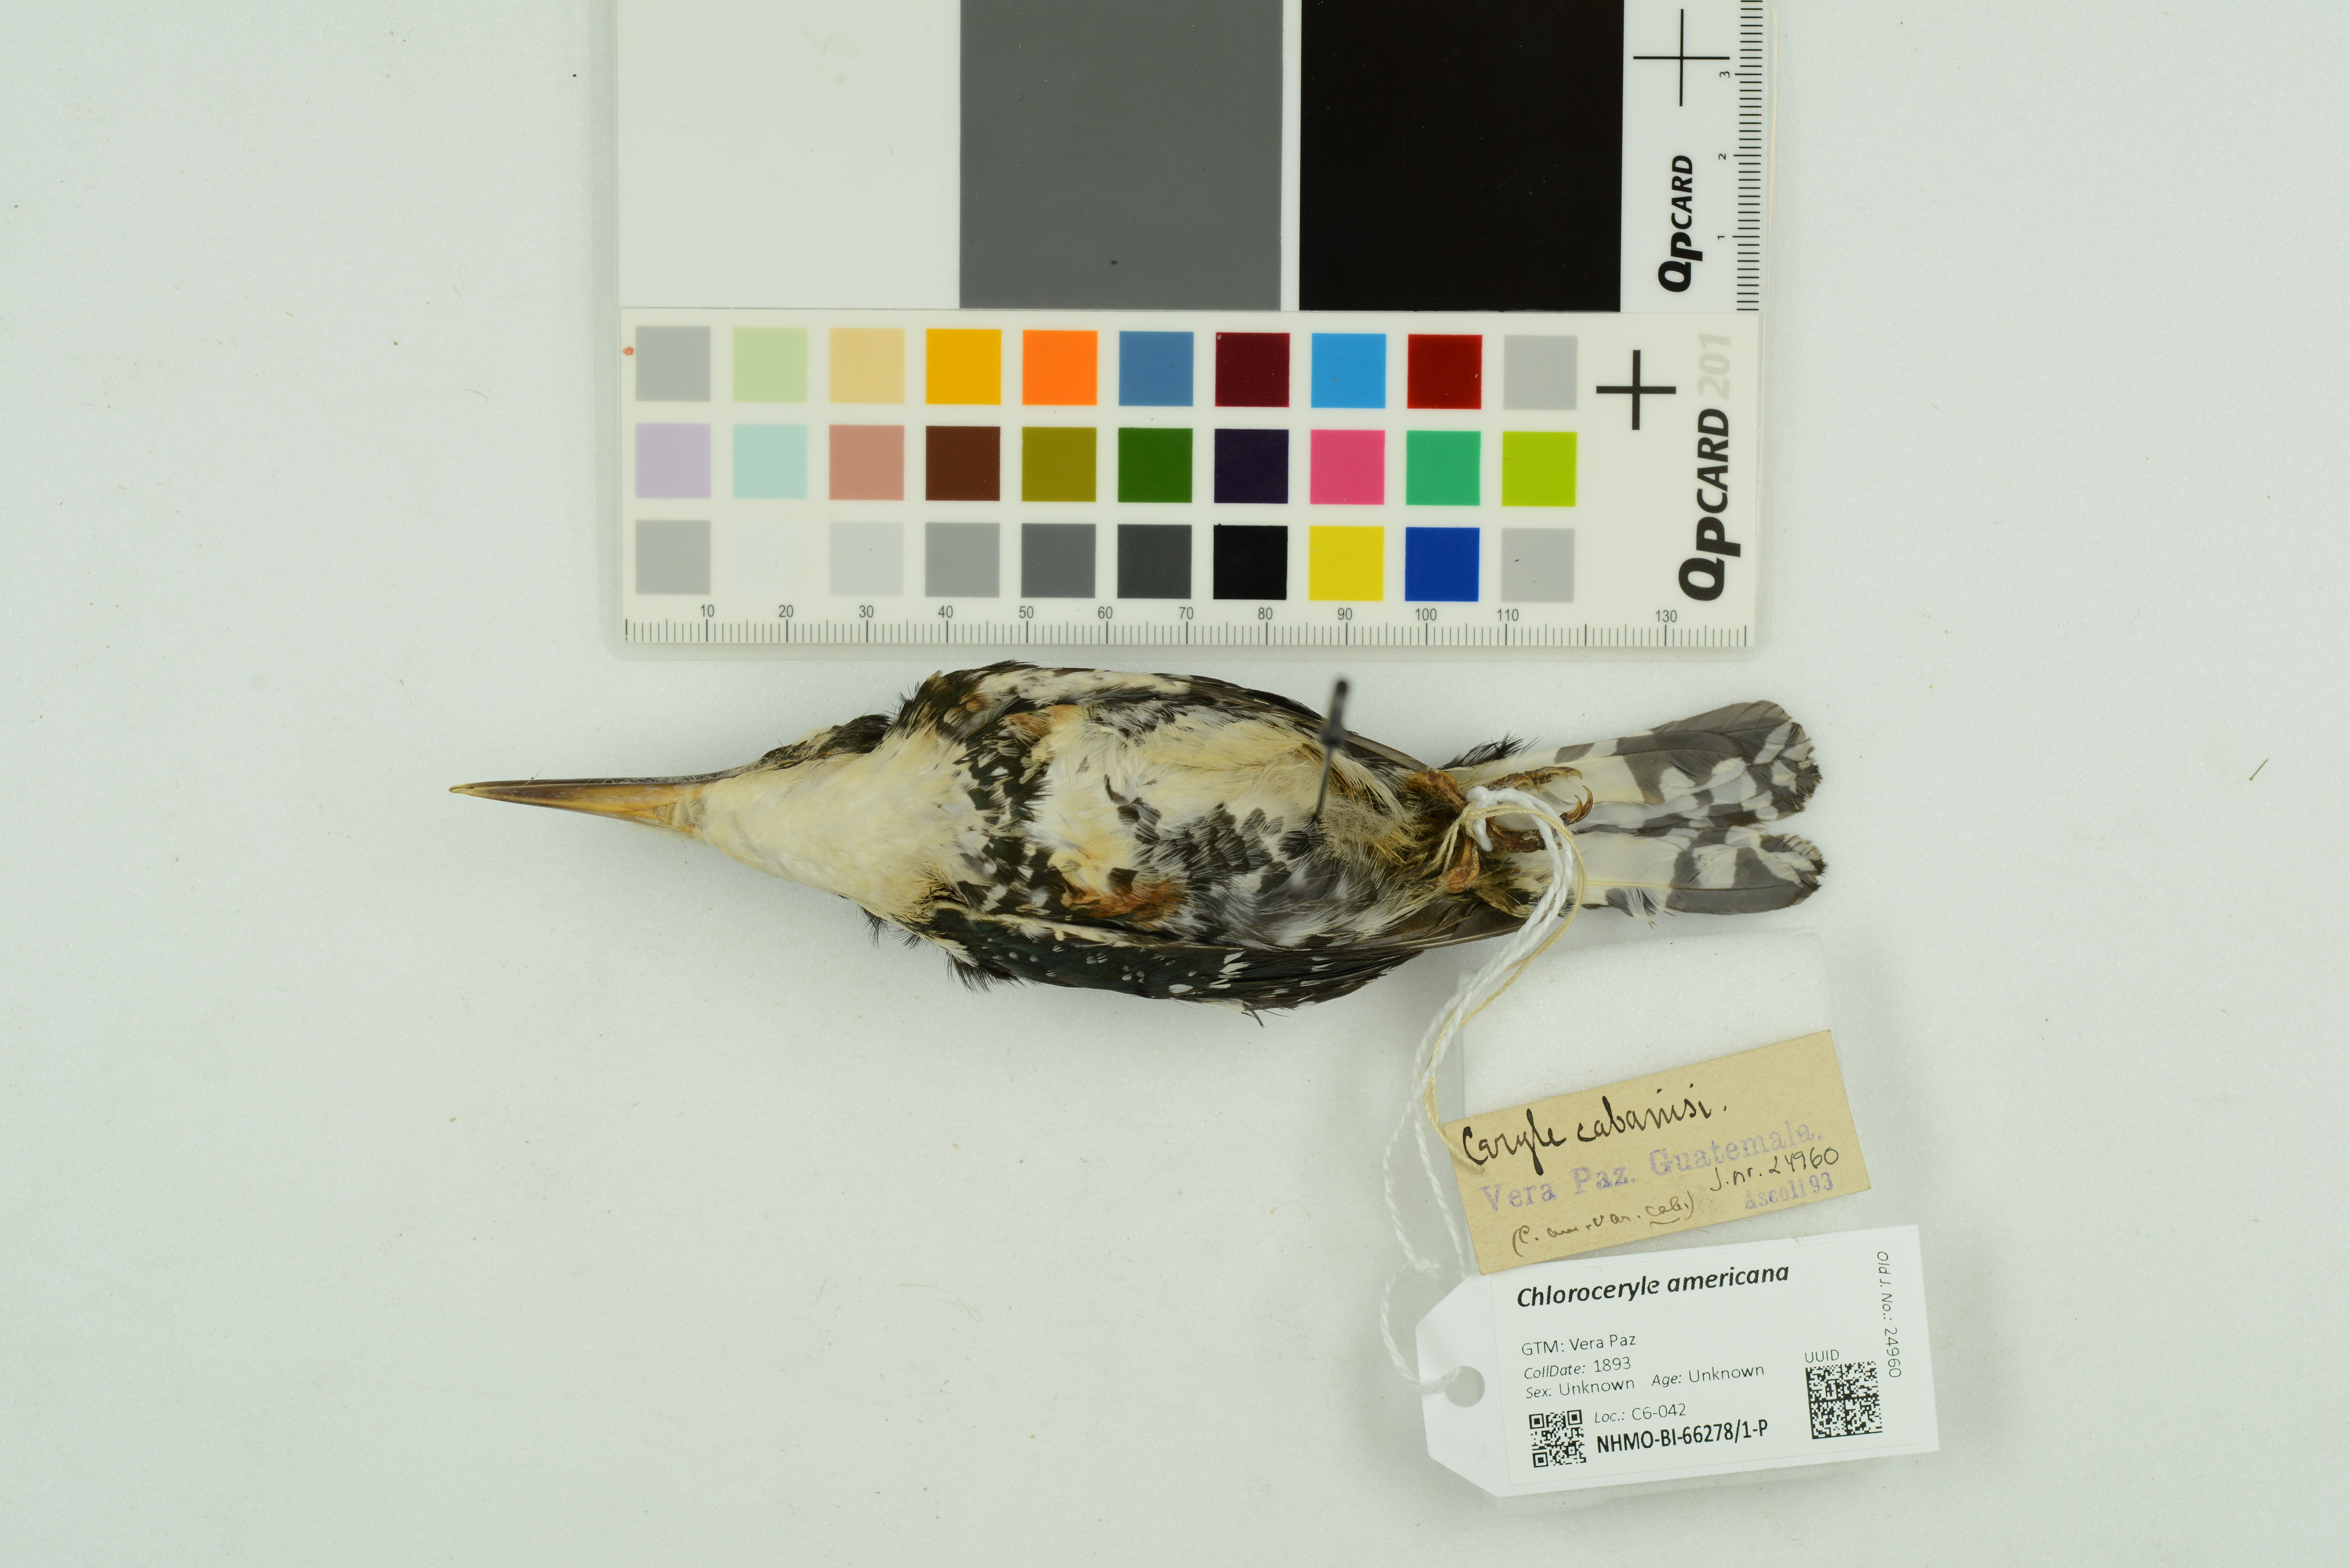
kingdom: Animalia
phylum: Chordata
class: Aves
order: Coraciiformes
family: Alcedinidae
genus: Chloroceryle
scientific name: Chloroceryle americana
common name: Green kingfisher
